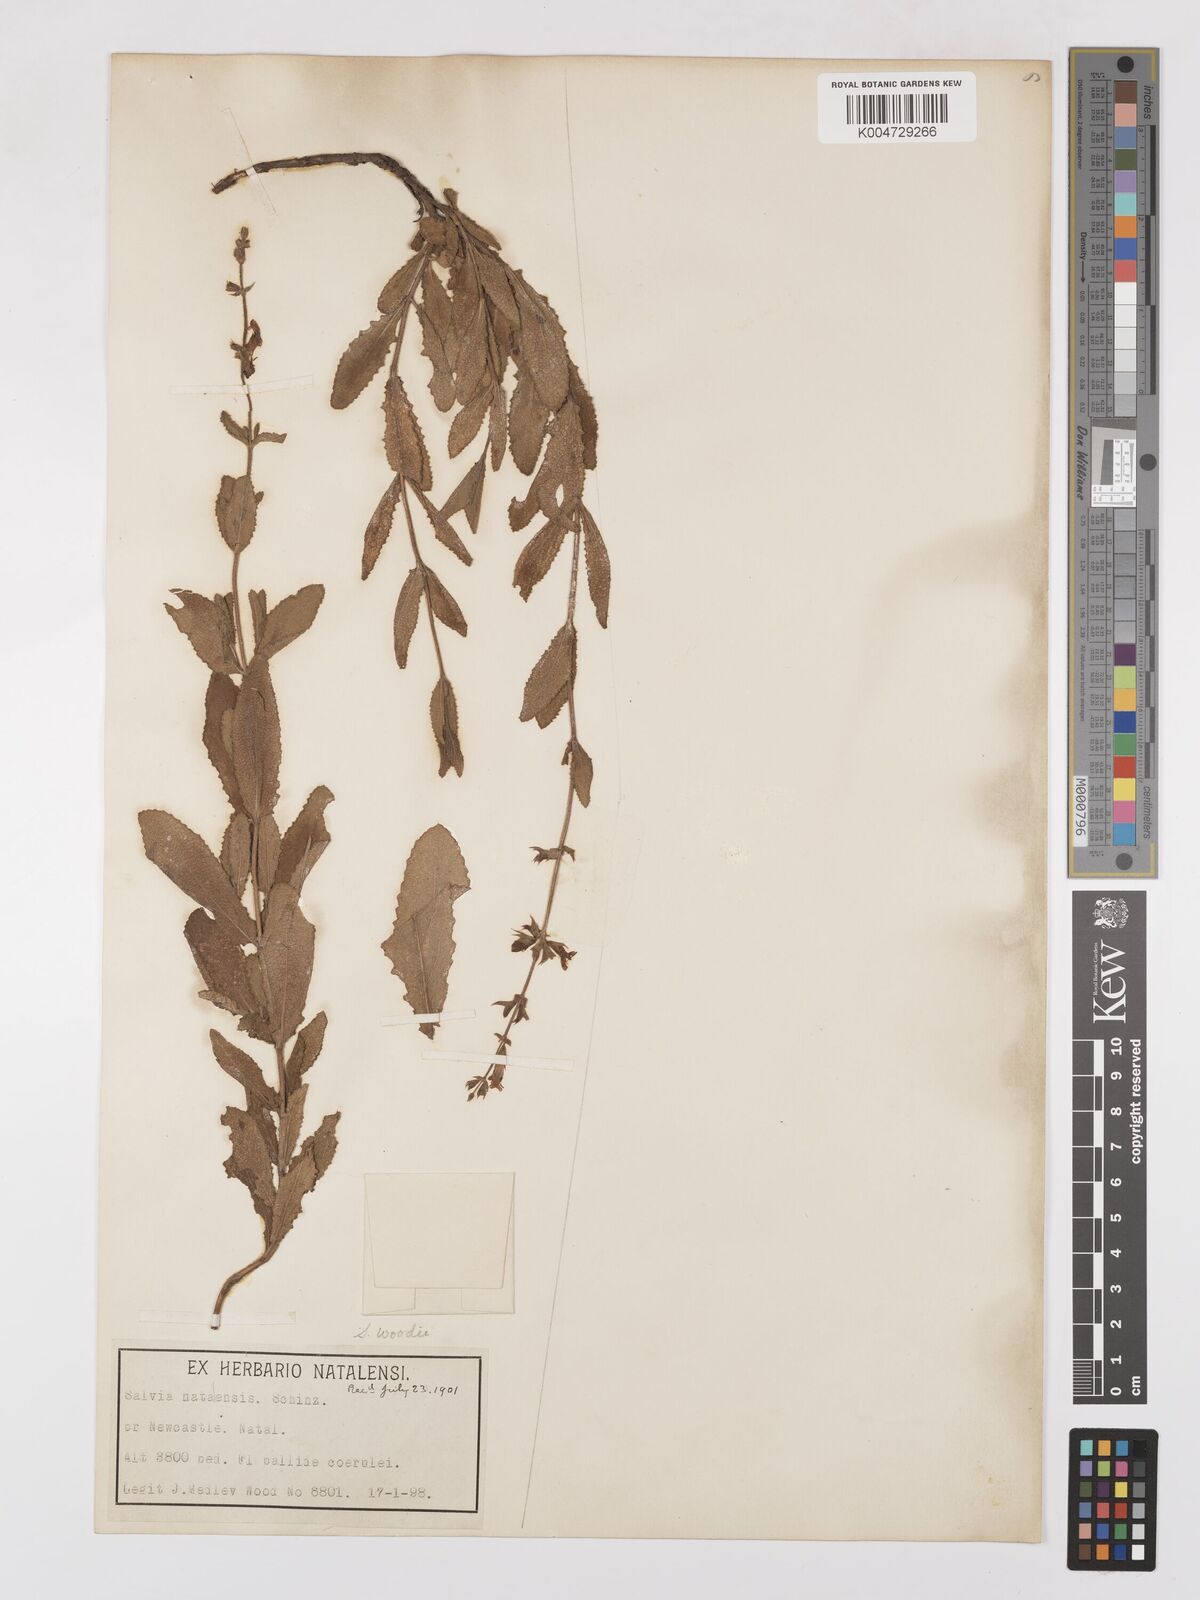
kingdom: Plantae
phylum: Tracheophyta
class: Magnoliopsida
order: Lamiales
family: Lamiaceae
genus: Salvia
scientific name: Salvia repens
